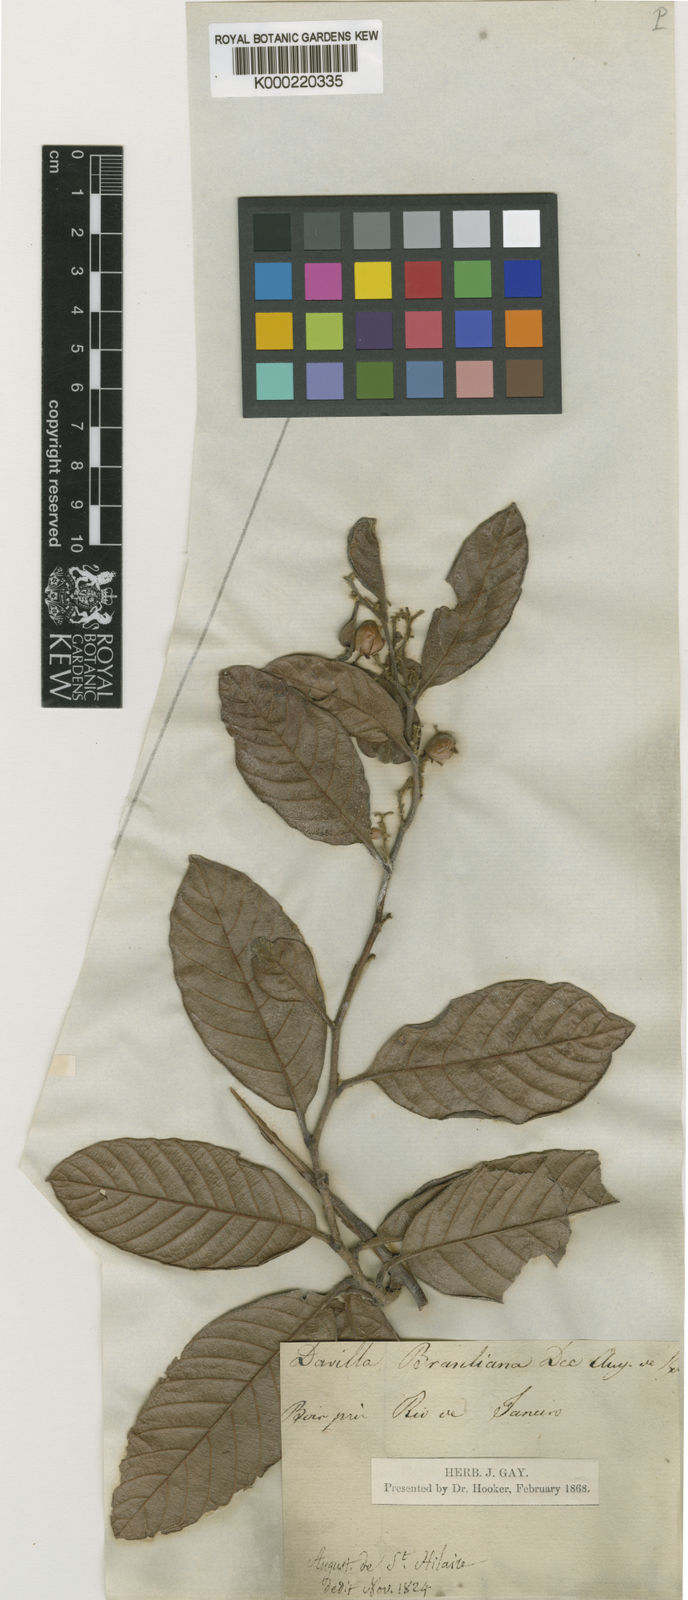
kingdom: Plantae
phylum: Tracheophyta
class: Magnoliopsida
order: Dilleniales
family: Dilleniaceae
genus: Davilla
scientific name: Davilla rugosa
